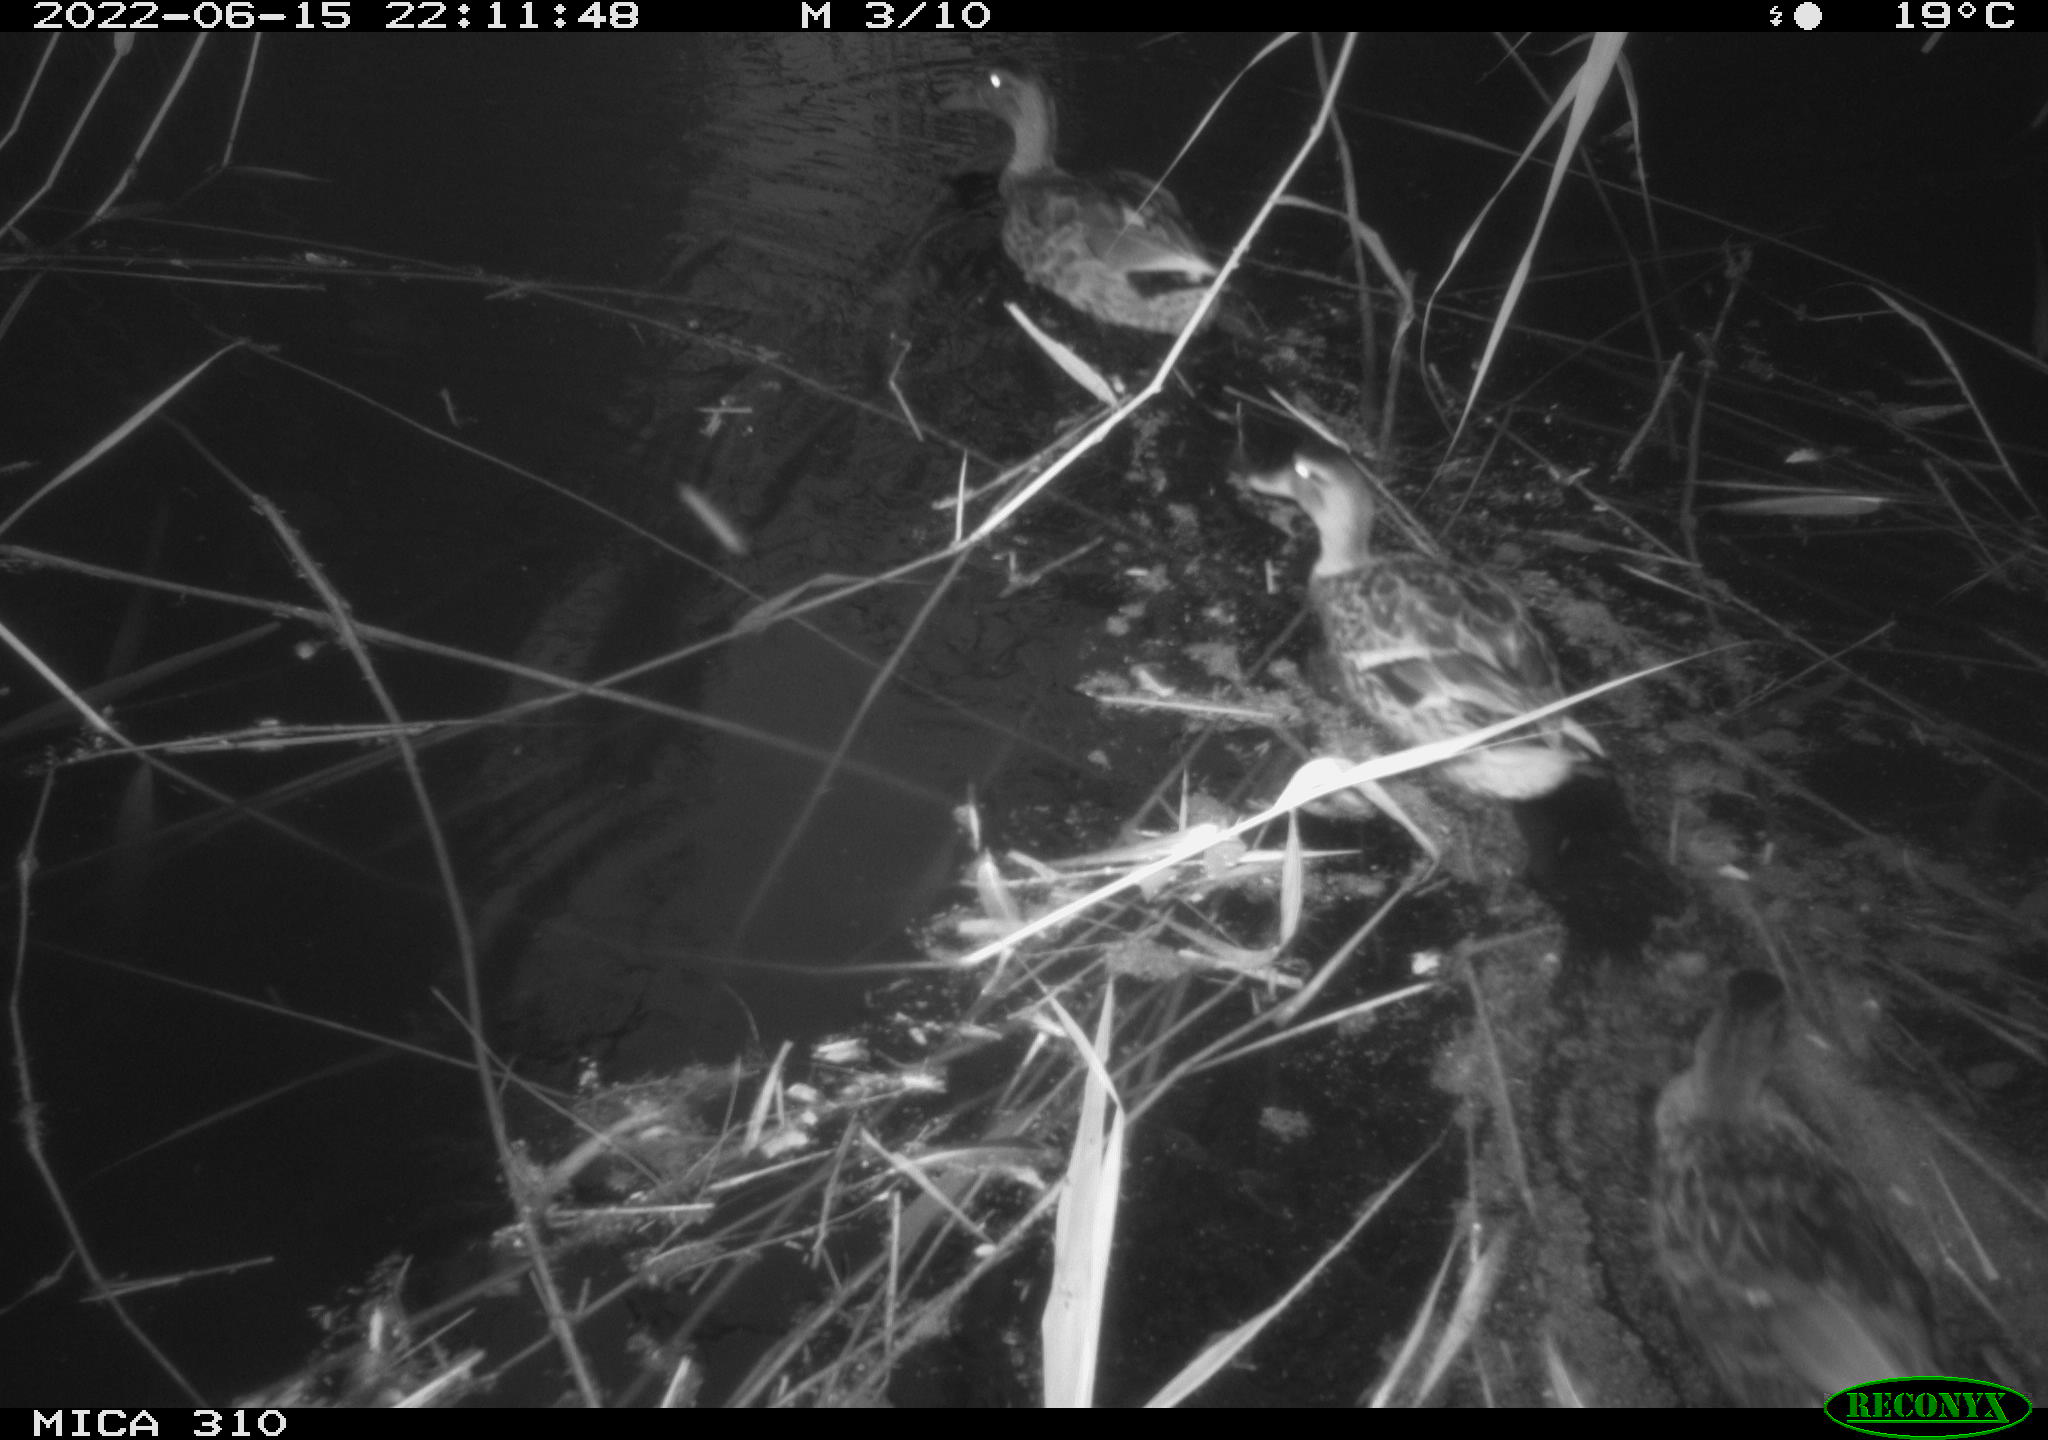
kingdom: Animalia
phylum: Chordata
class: Aves
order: Anseriformes
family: Anatidae
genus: Anas
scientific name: Anas platyrhynchos
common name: Mallard
